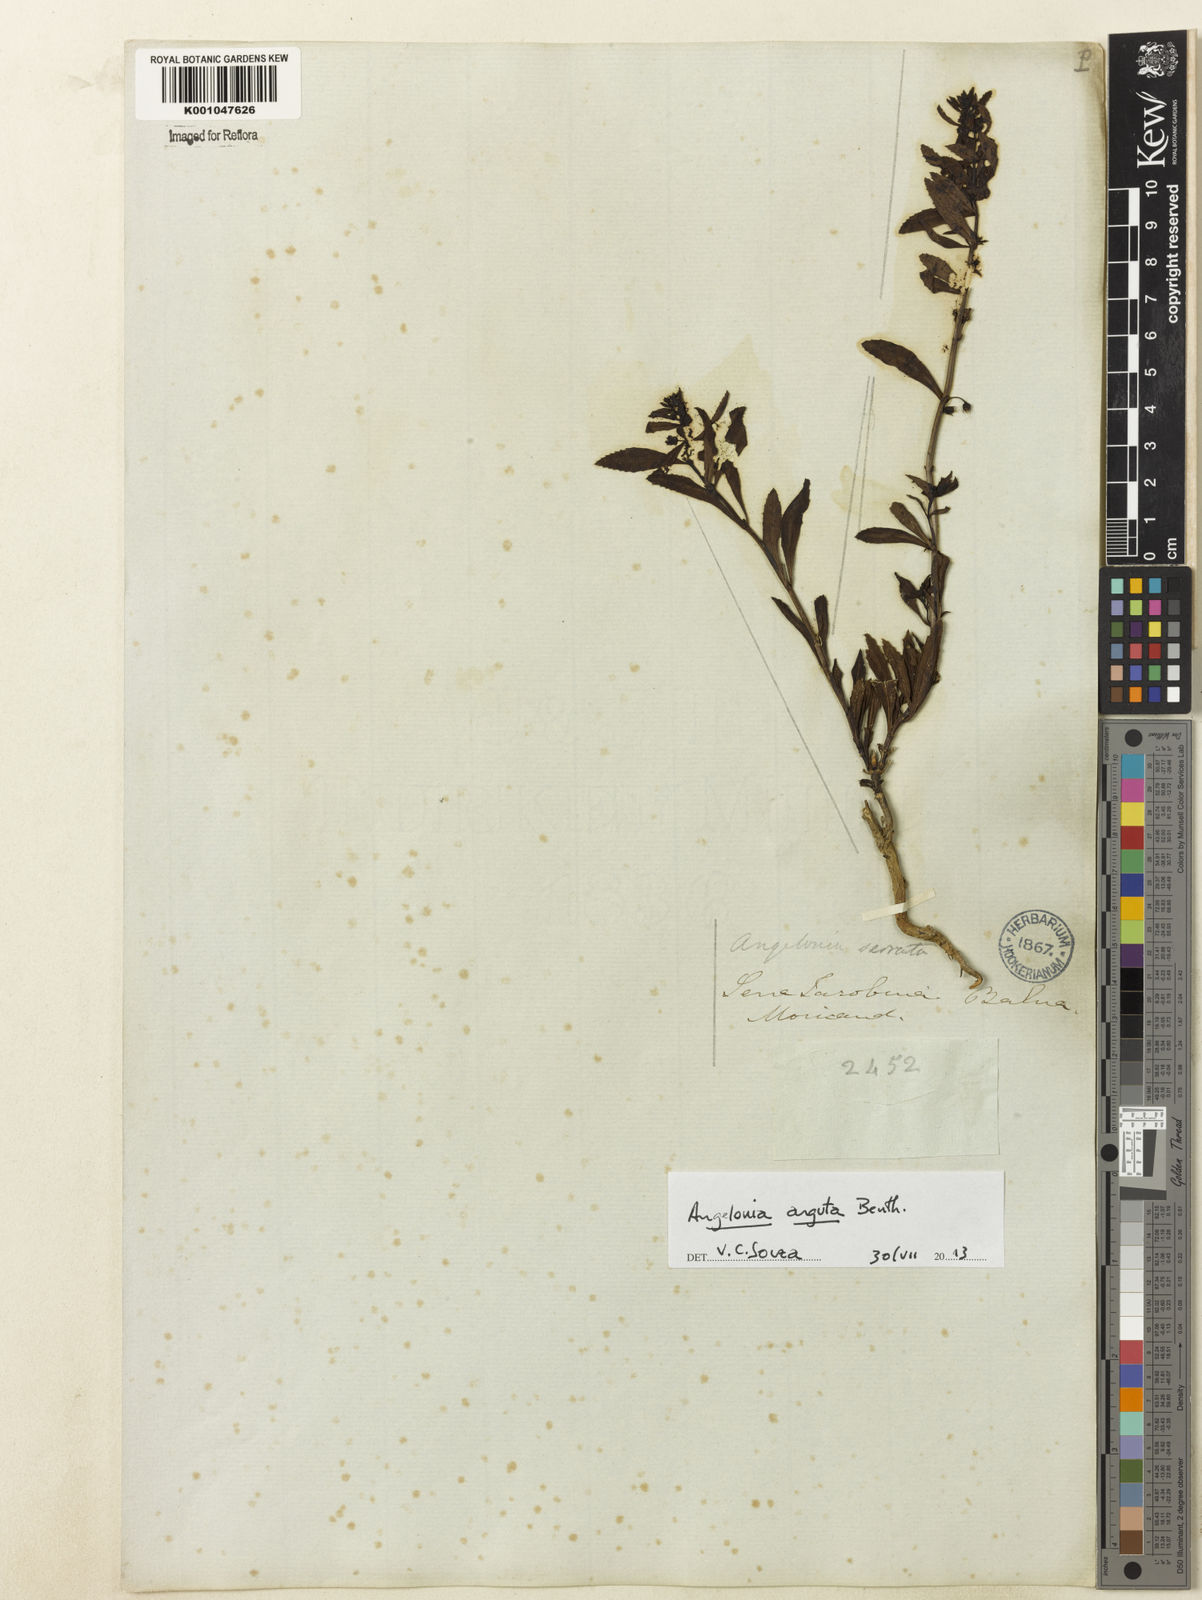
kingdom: Plantae
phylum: Tracheophyta
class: Magnoliopsida
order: Lamiales
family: Plantaginaceae
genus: Angelonia
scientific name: Angelonia arguta
